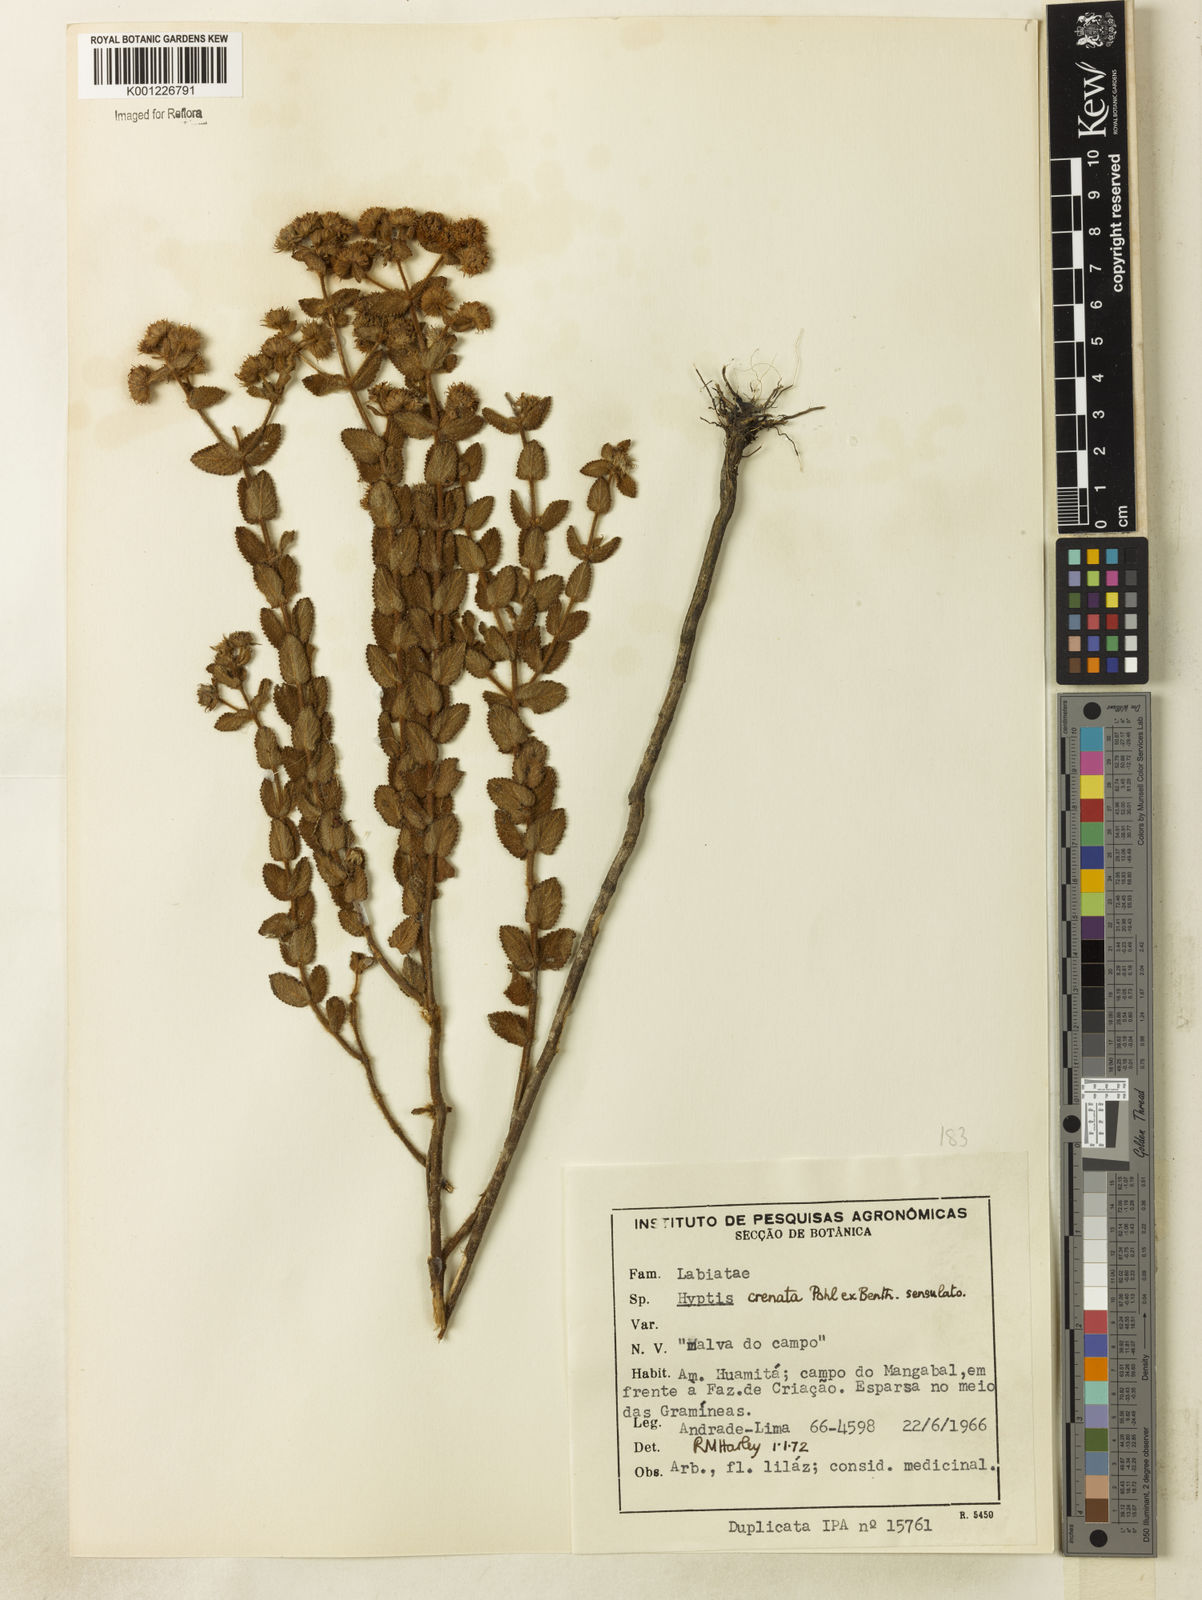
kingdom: Plantae
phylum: Tracheophyta
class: Magnoliopsida
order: Lamiales
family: Lamiaceae
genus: Hyptis
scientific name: Hyptis crenata
